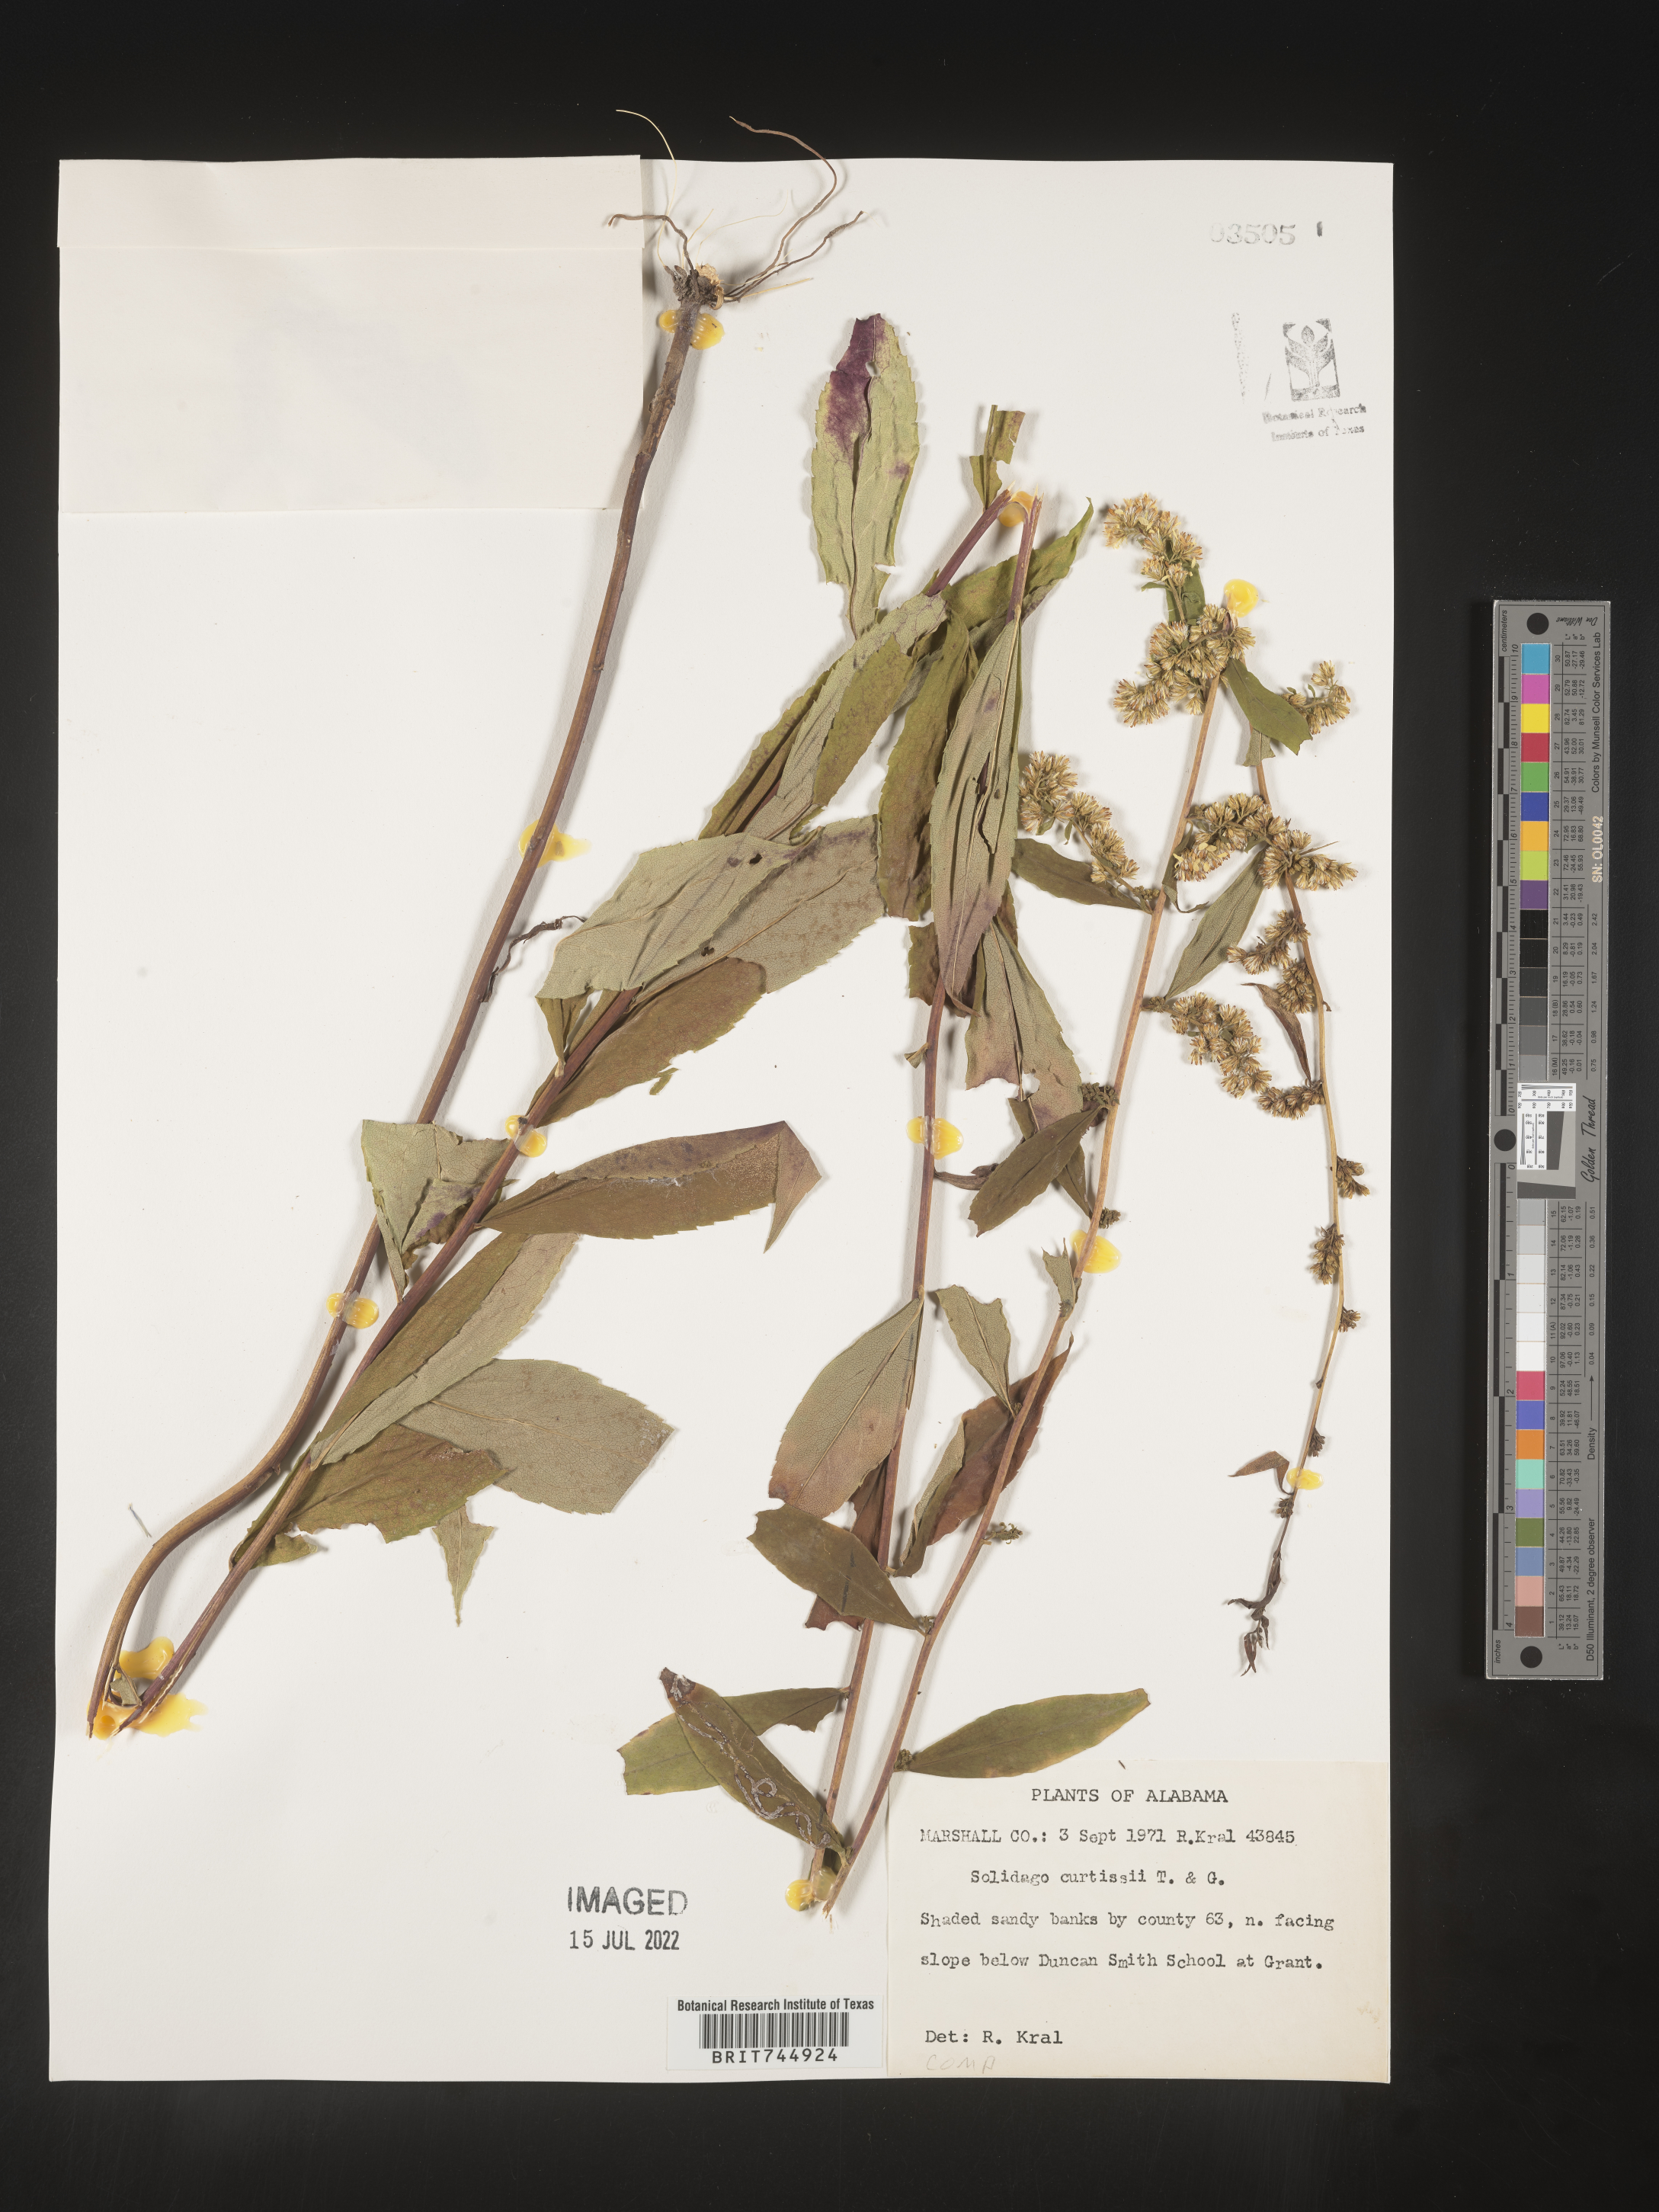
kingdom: Plantae
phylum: Tracheophyta
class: Magnoliopsida
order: Asterales
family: Asteraceae
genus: Solidago
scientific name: Solidago curtisii
